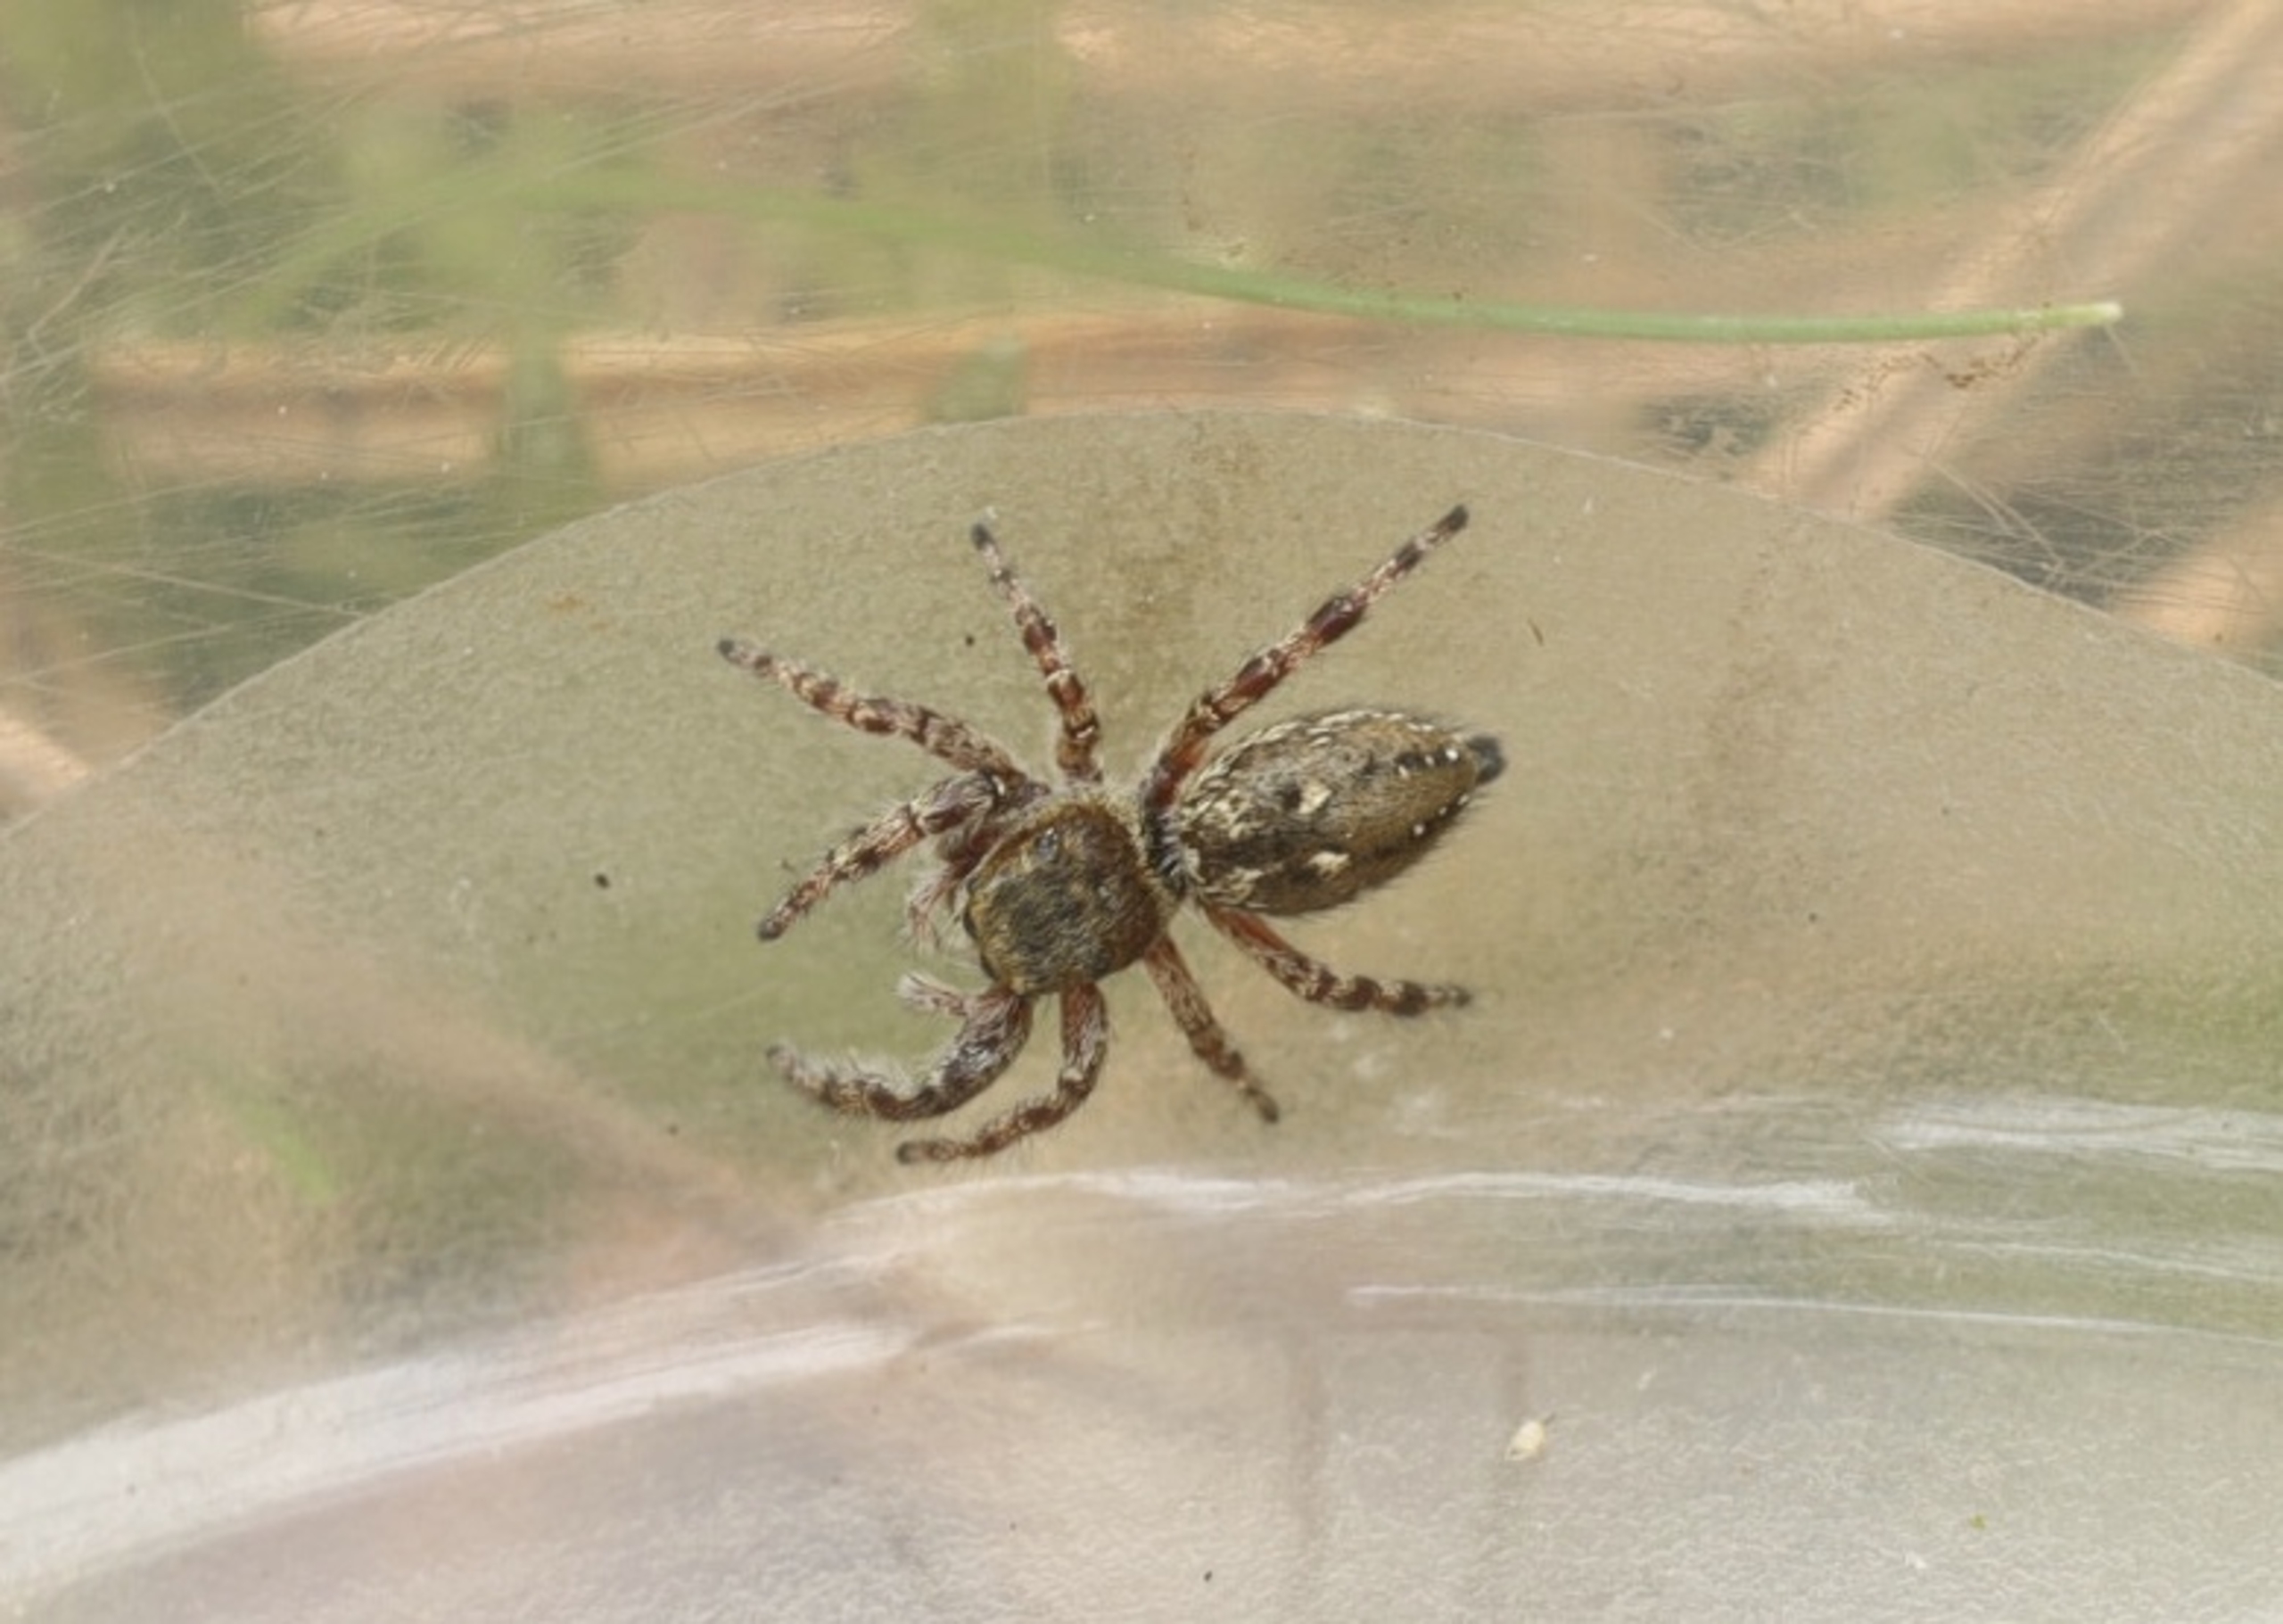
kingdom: Animalia
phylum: Arthropoda
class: Arachnida
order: Araneae
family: Salticidae
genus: Dendryphantes
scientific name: Dendryphantes rudis
